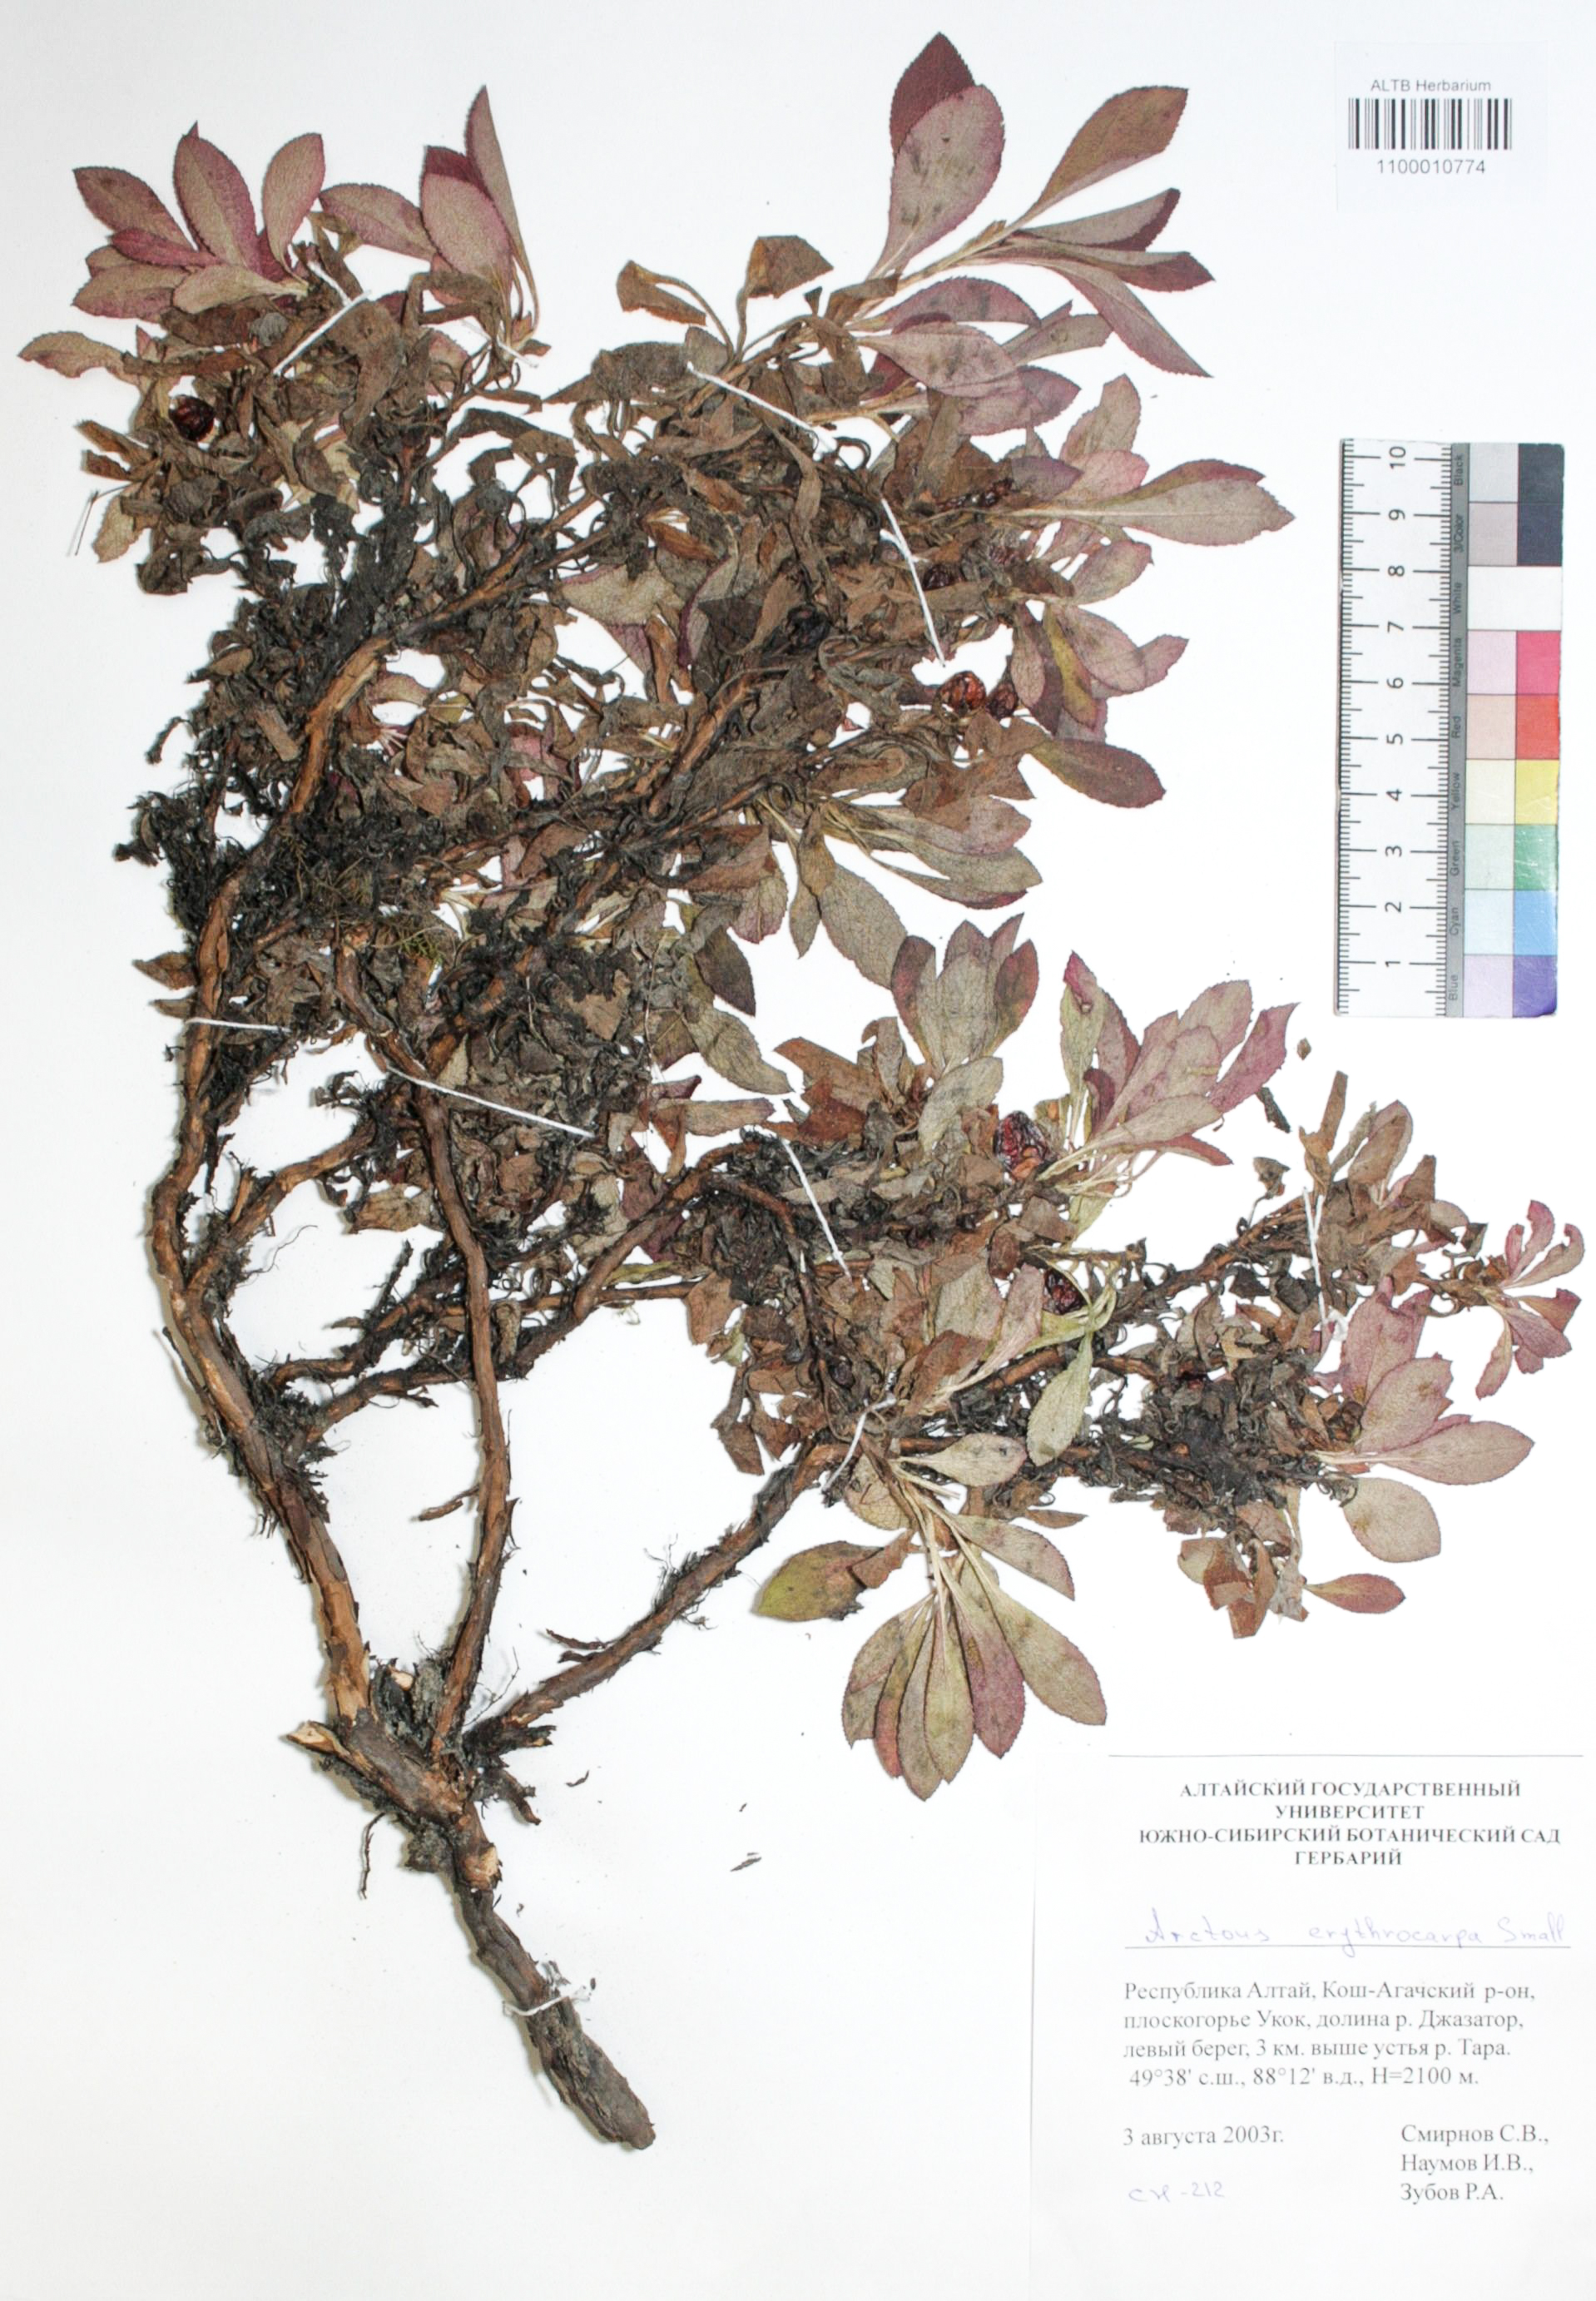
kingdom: Plantae
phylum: Tracheophyta
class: Magnoliopsida
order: Ericales
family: Ericaceae
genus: Arctostaphylos
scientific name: Arctostaphylos rubra
